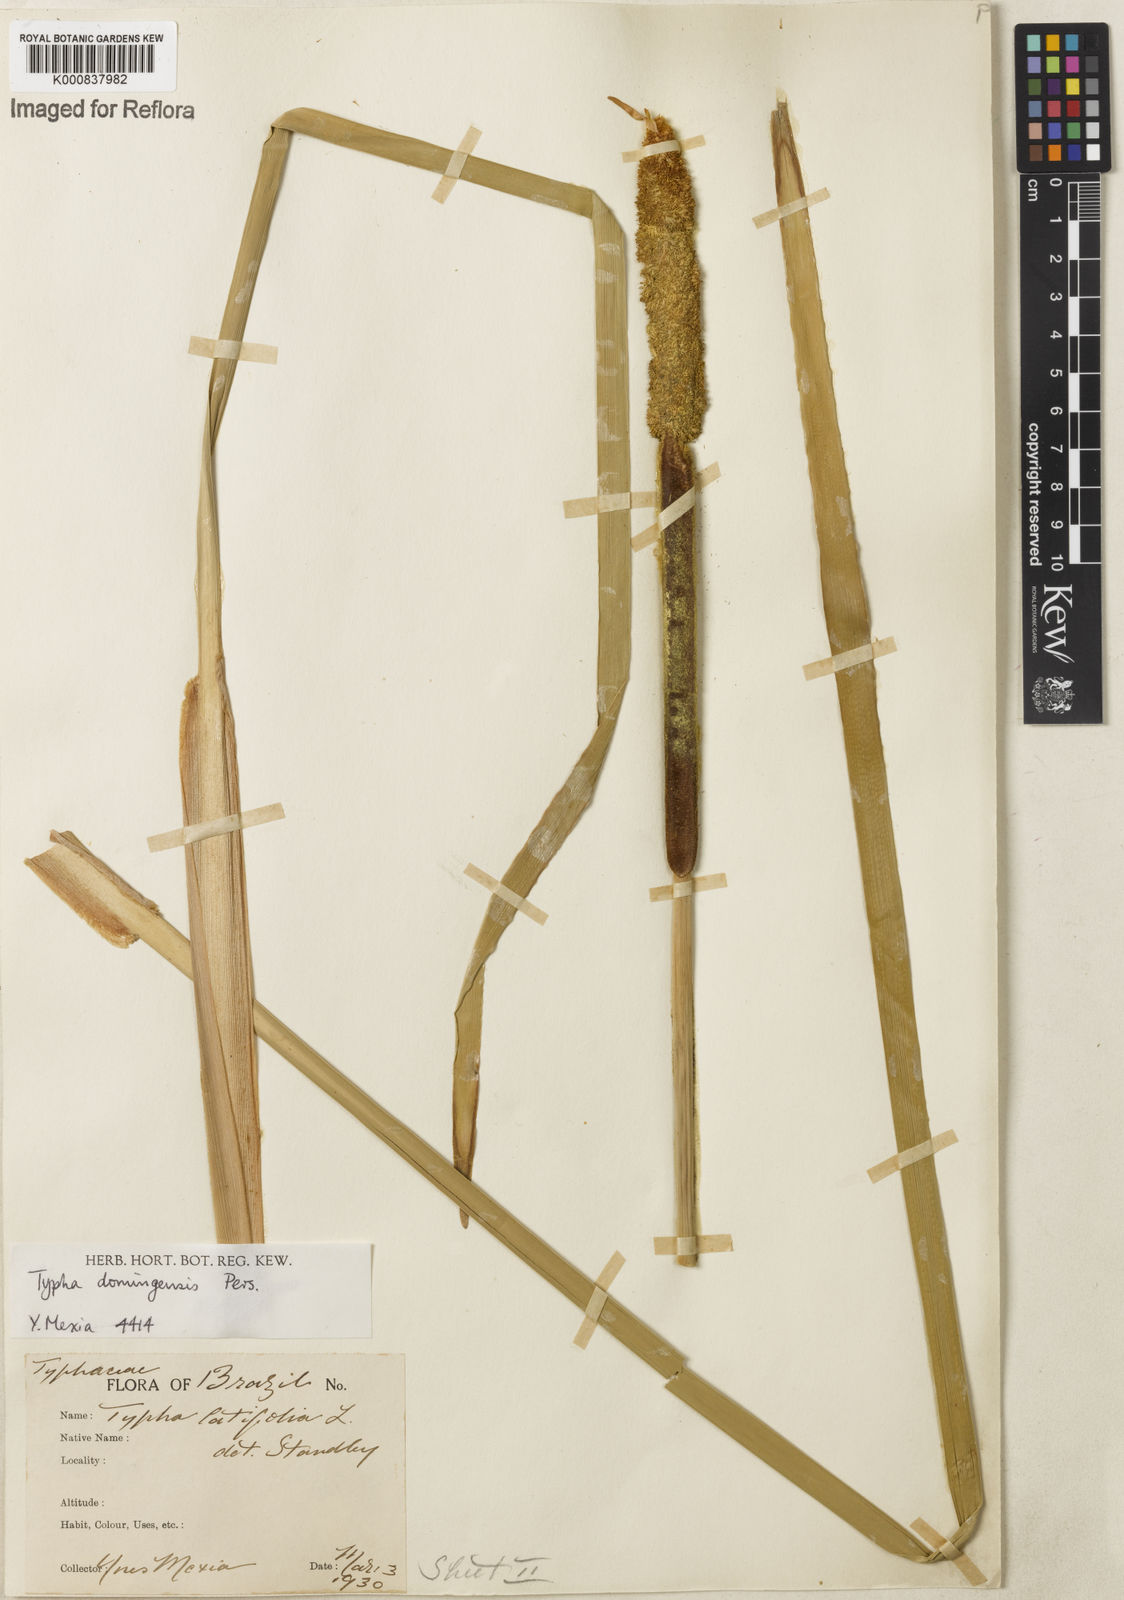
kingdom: Plantae
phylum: Tracheophyta
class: Liliopsida
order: Poales
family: Typhaceae
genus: Typha
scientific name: Typha
